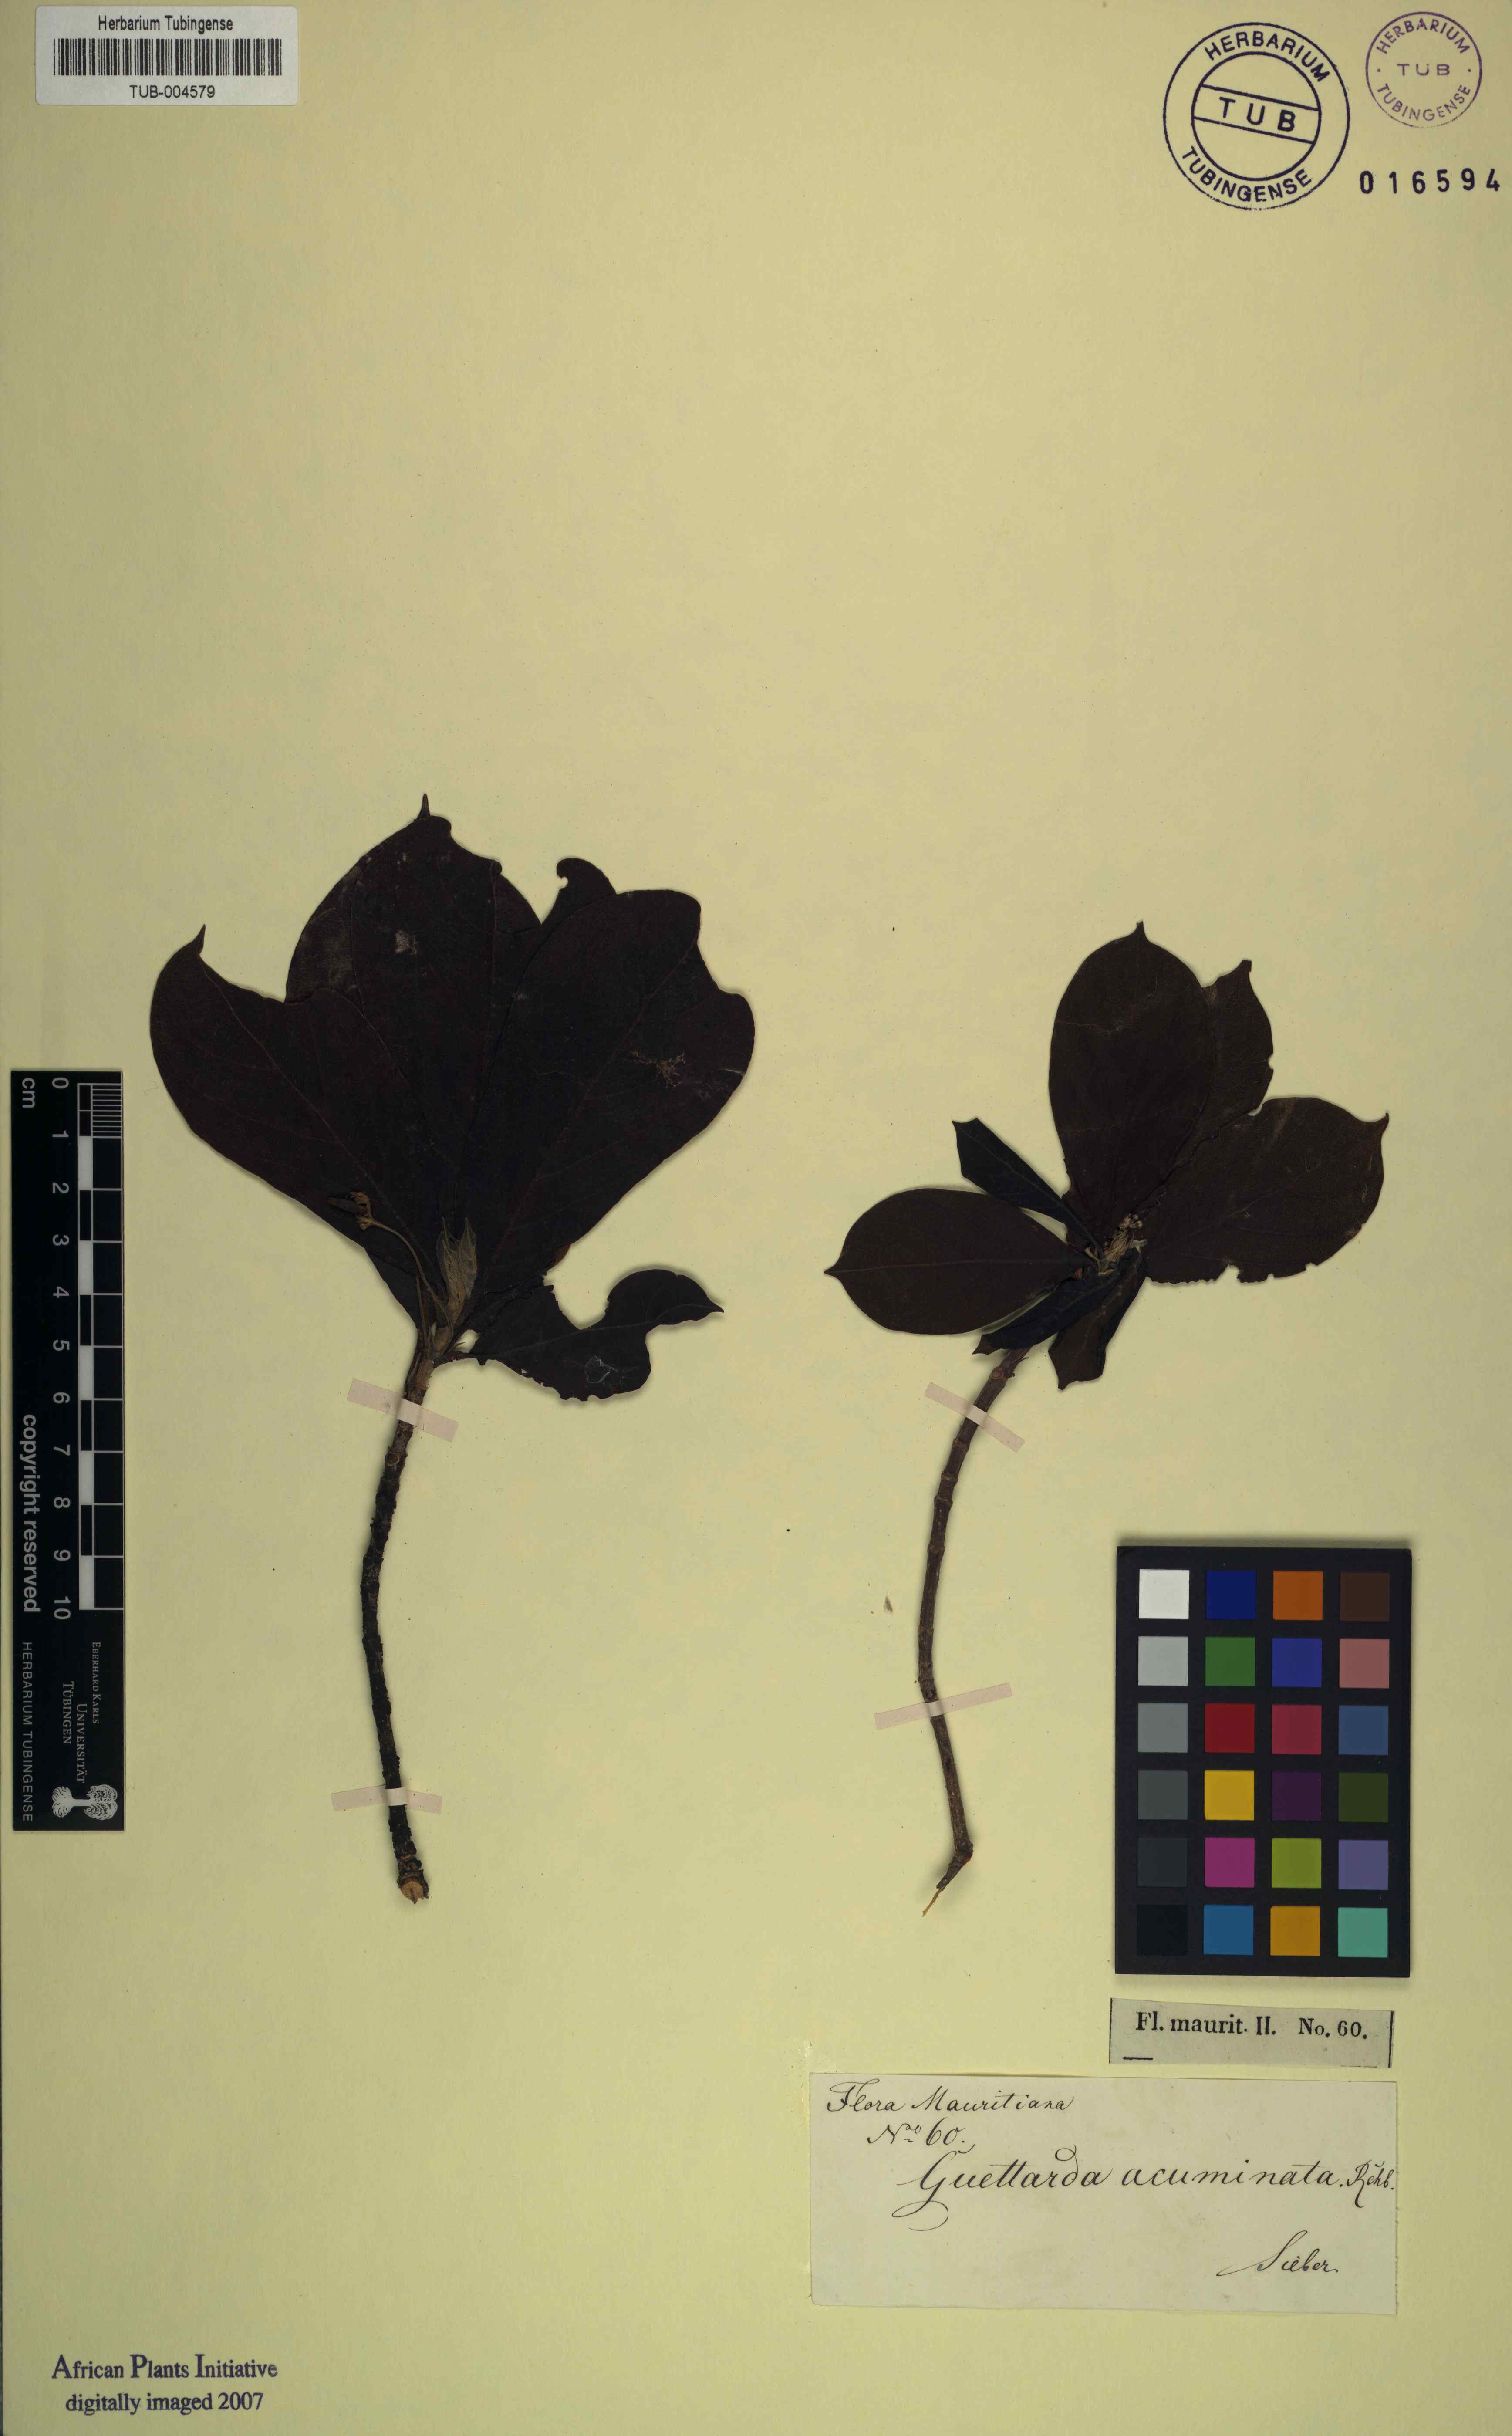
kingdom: Plantae
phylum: Tracheophyta
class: Magnoliopsida
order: Gentianales
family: Rubiaceae
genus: Antirhea
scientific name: Antirhea borbonica
